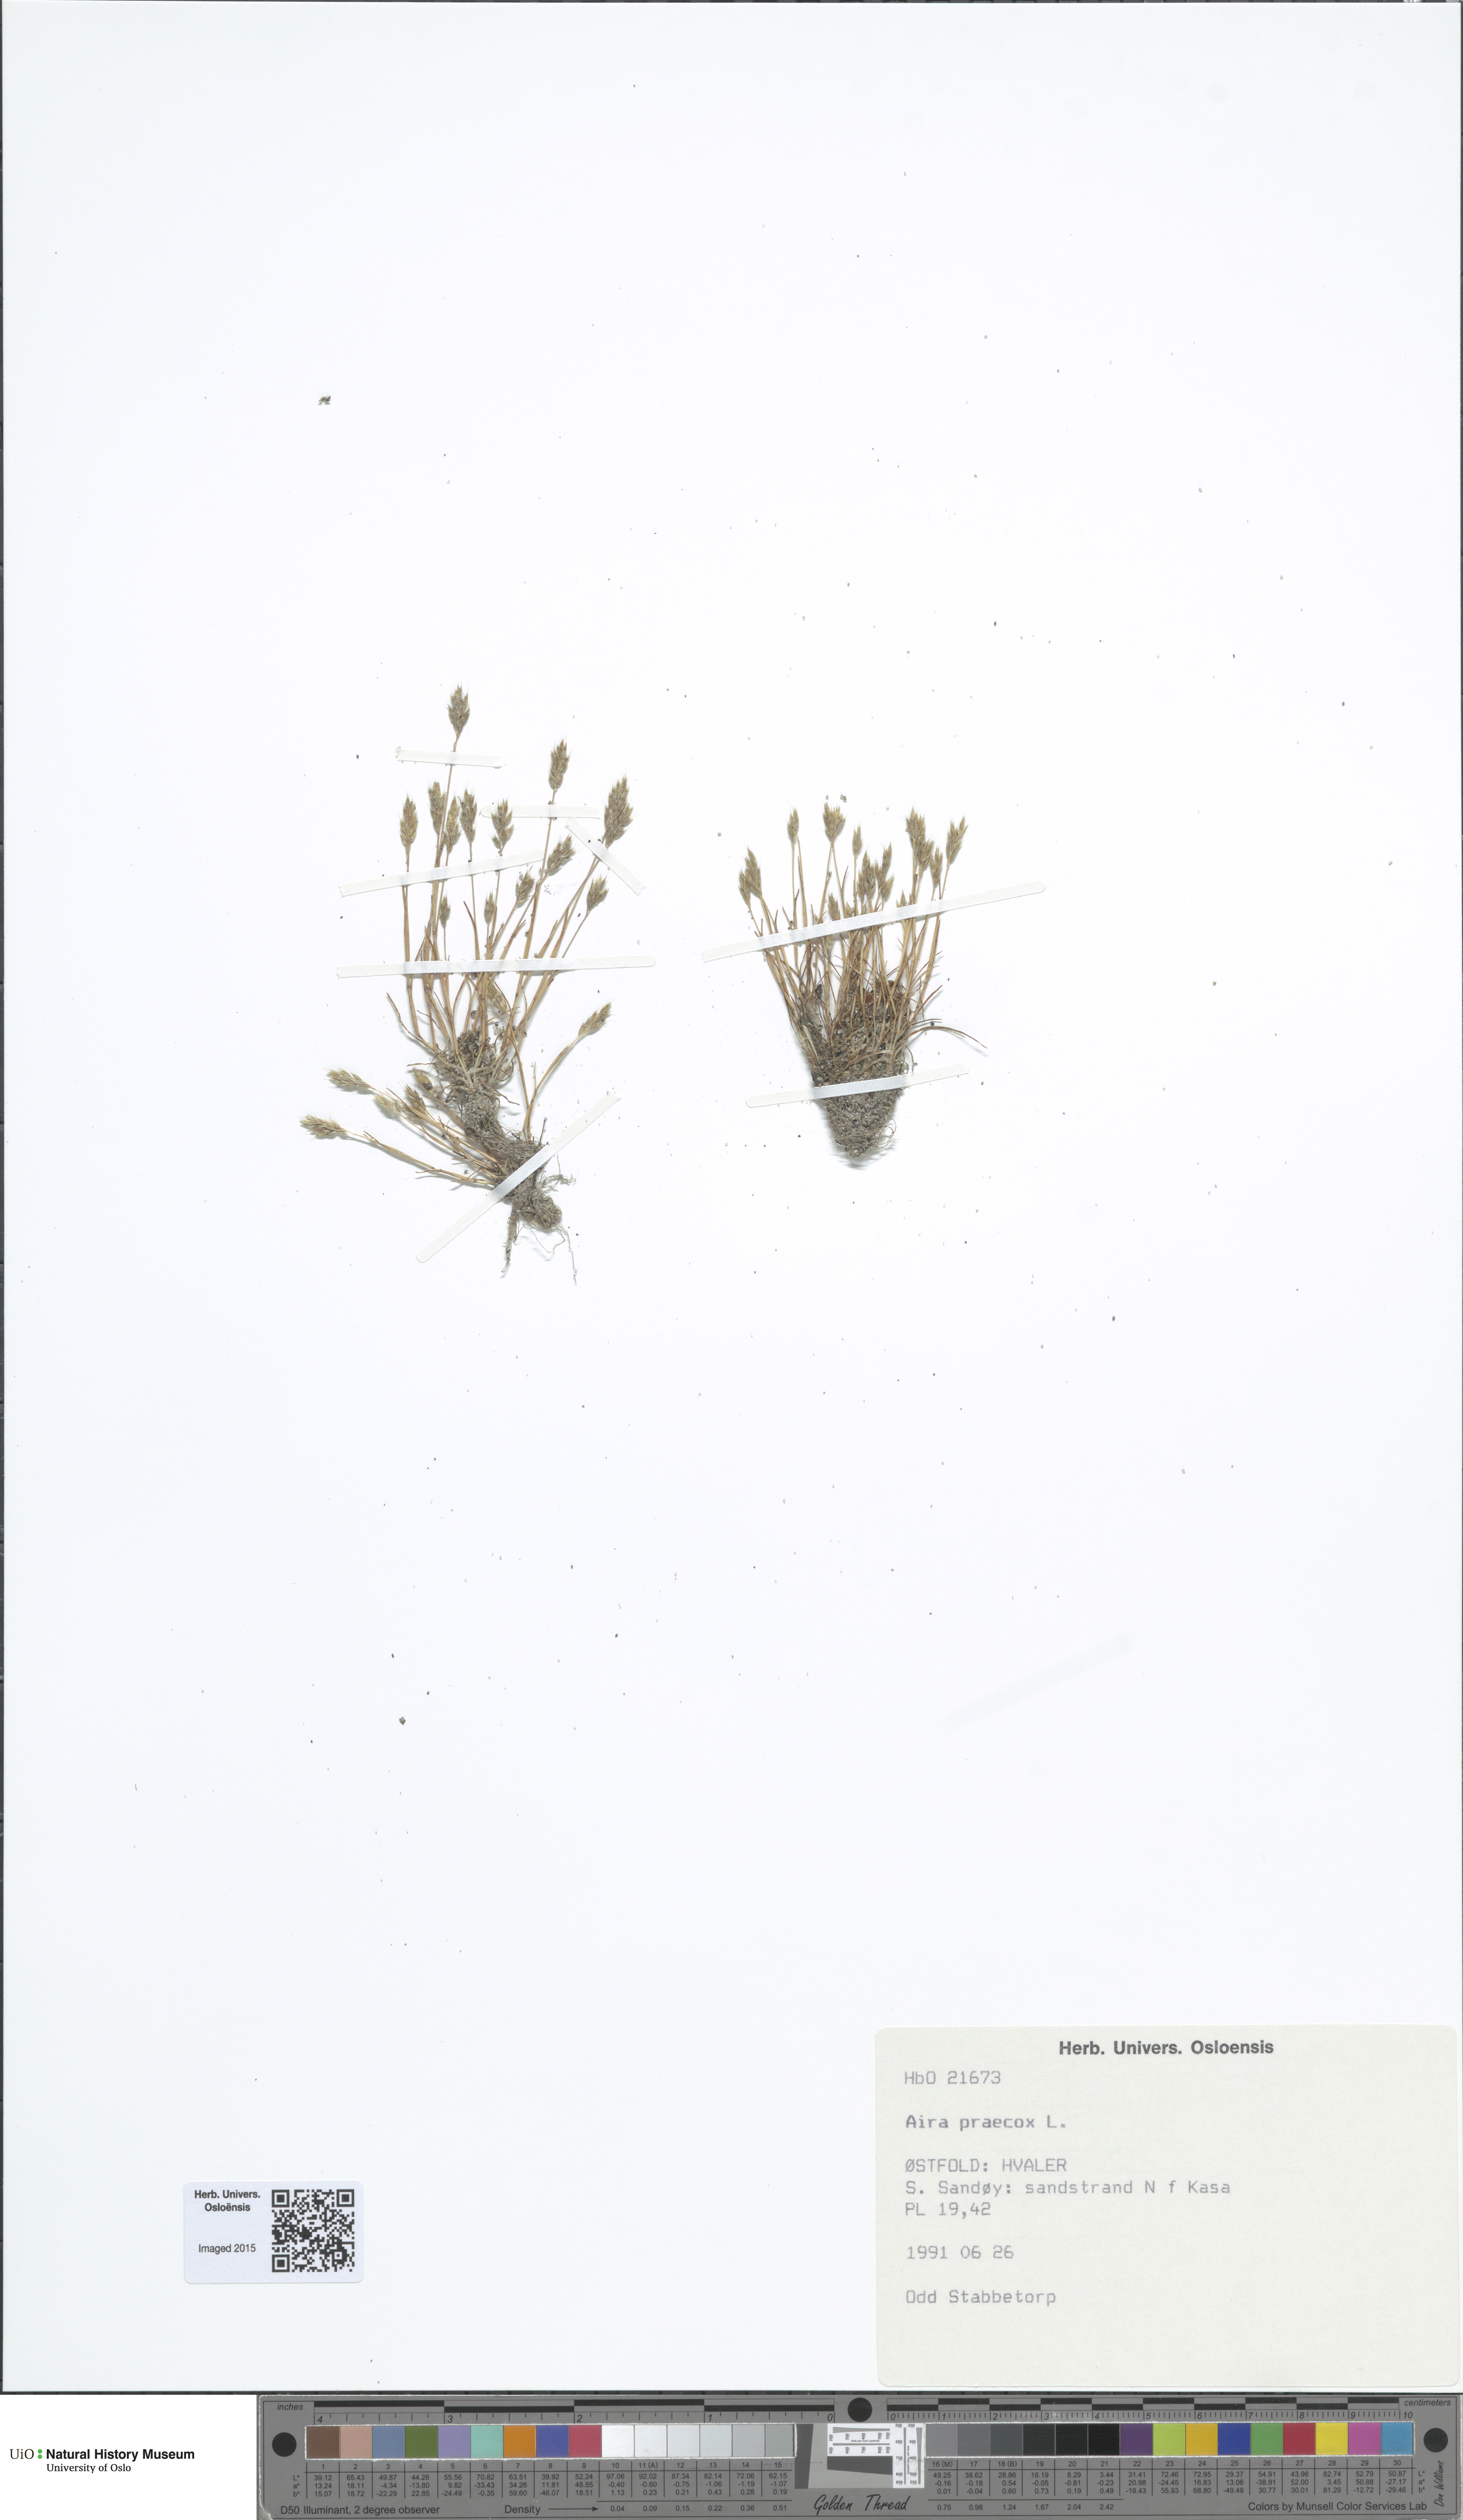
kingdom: Plantae
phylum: Tracheophyta
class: Liliopsida
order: Poales
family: Poaceae
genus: Aira
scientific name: Aira praecox
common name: Early hair-grass
